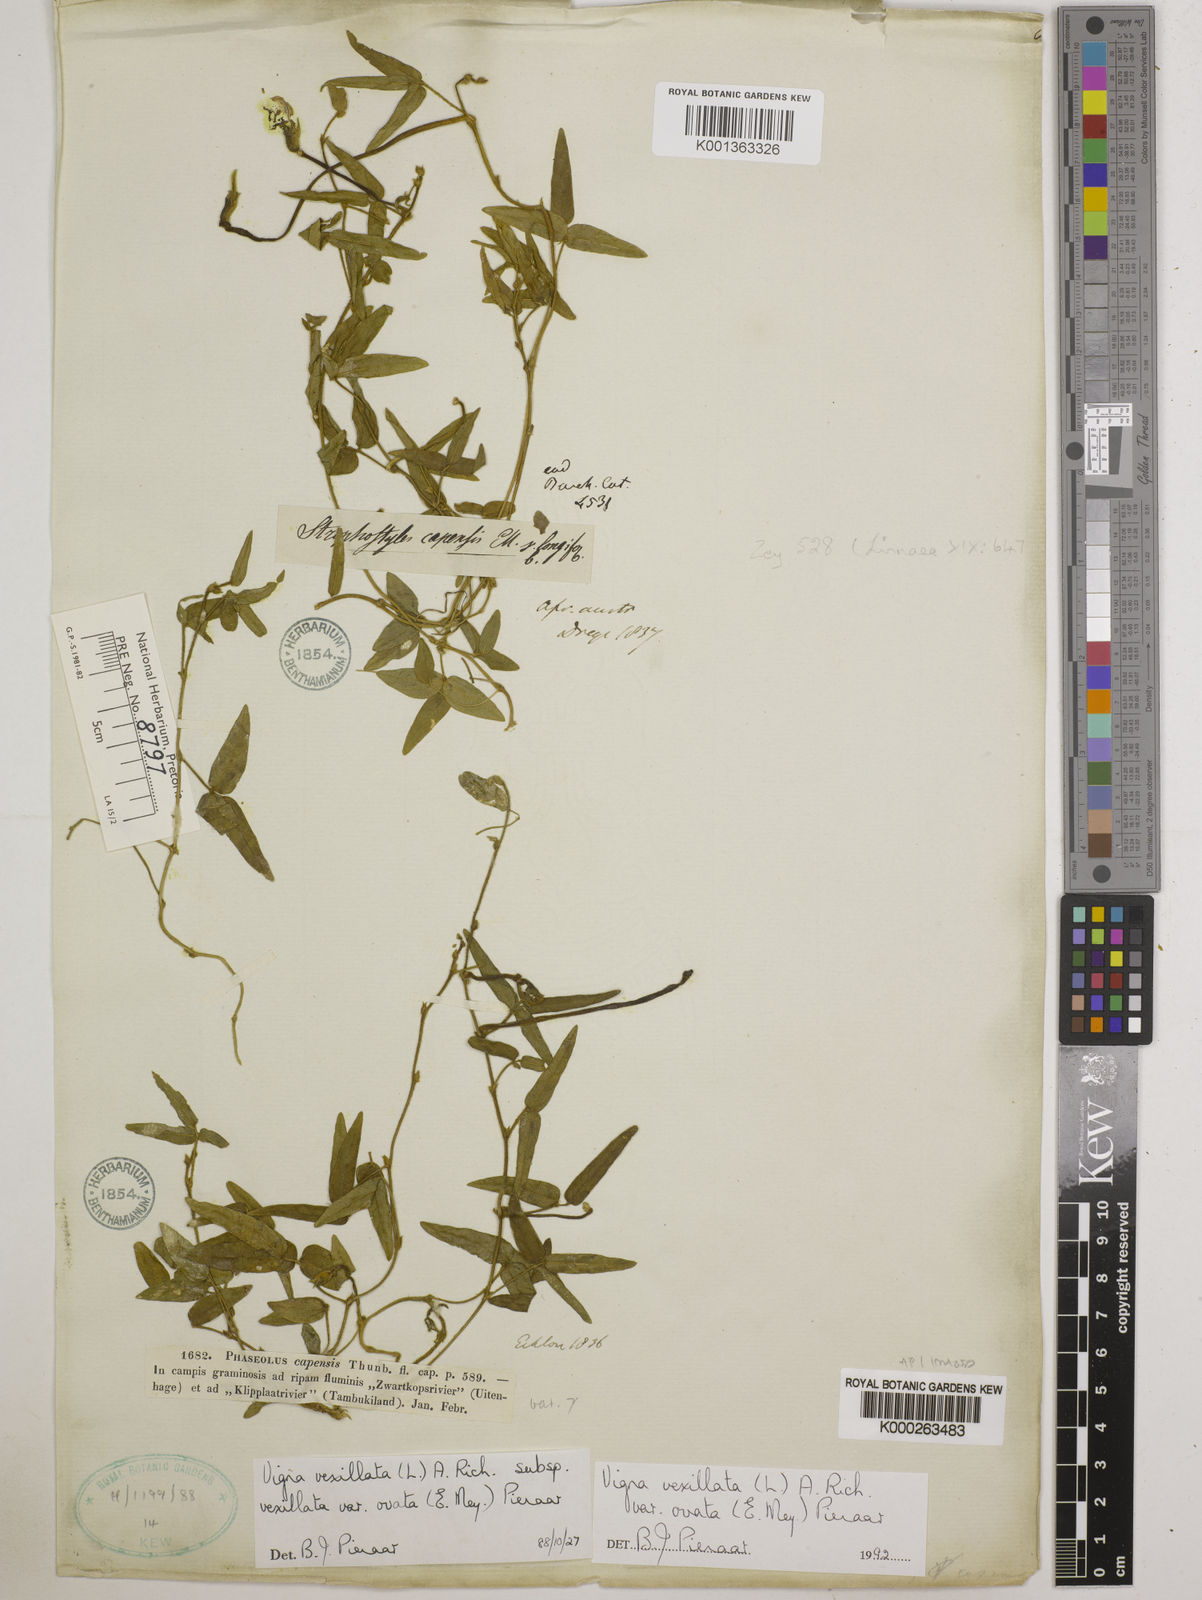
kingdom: Plantae
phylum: Tracheophyta
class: Magnoliopsida
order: Fabales
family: Fabaceae
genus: Vigna
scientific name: Vigna
